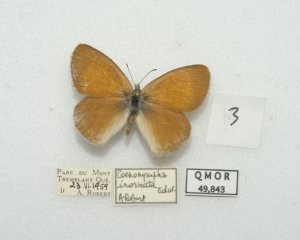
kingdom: Animalia
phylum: Arthropoda
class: Insecta
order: Lepidoptera
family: Nymphalidae
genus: Coenonympha
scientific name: Coenonympha tullia
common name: Large Heath
